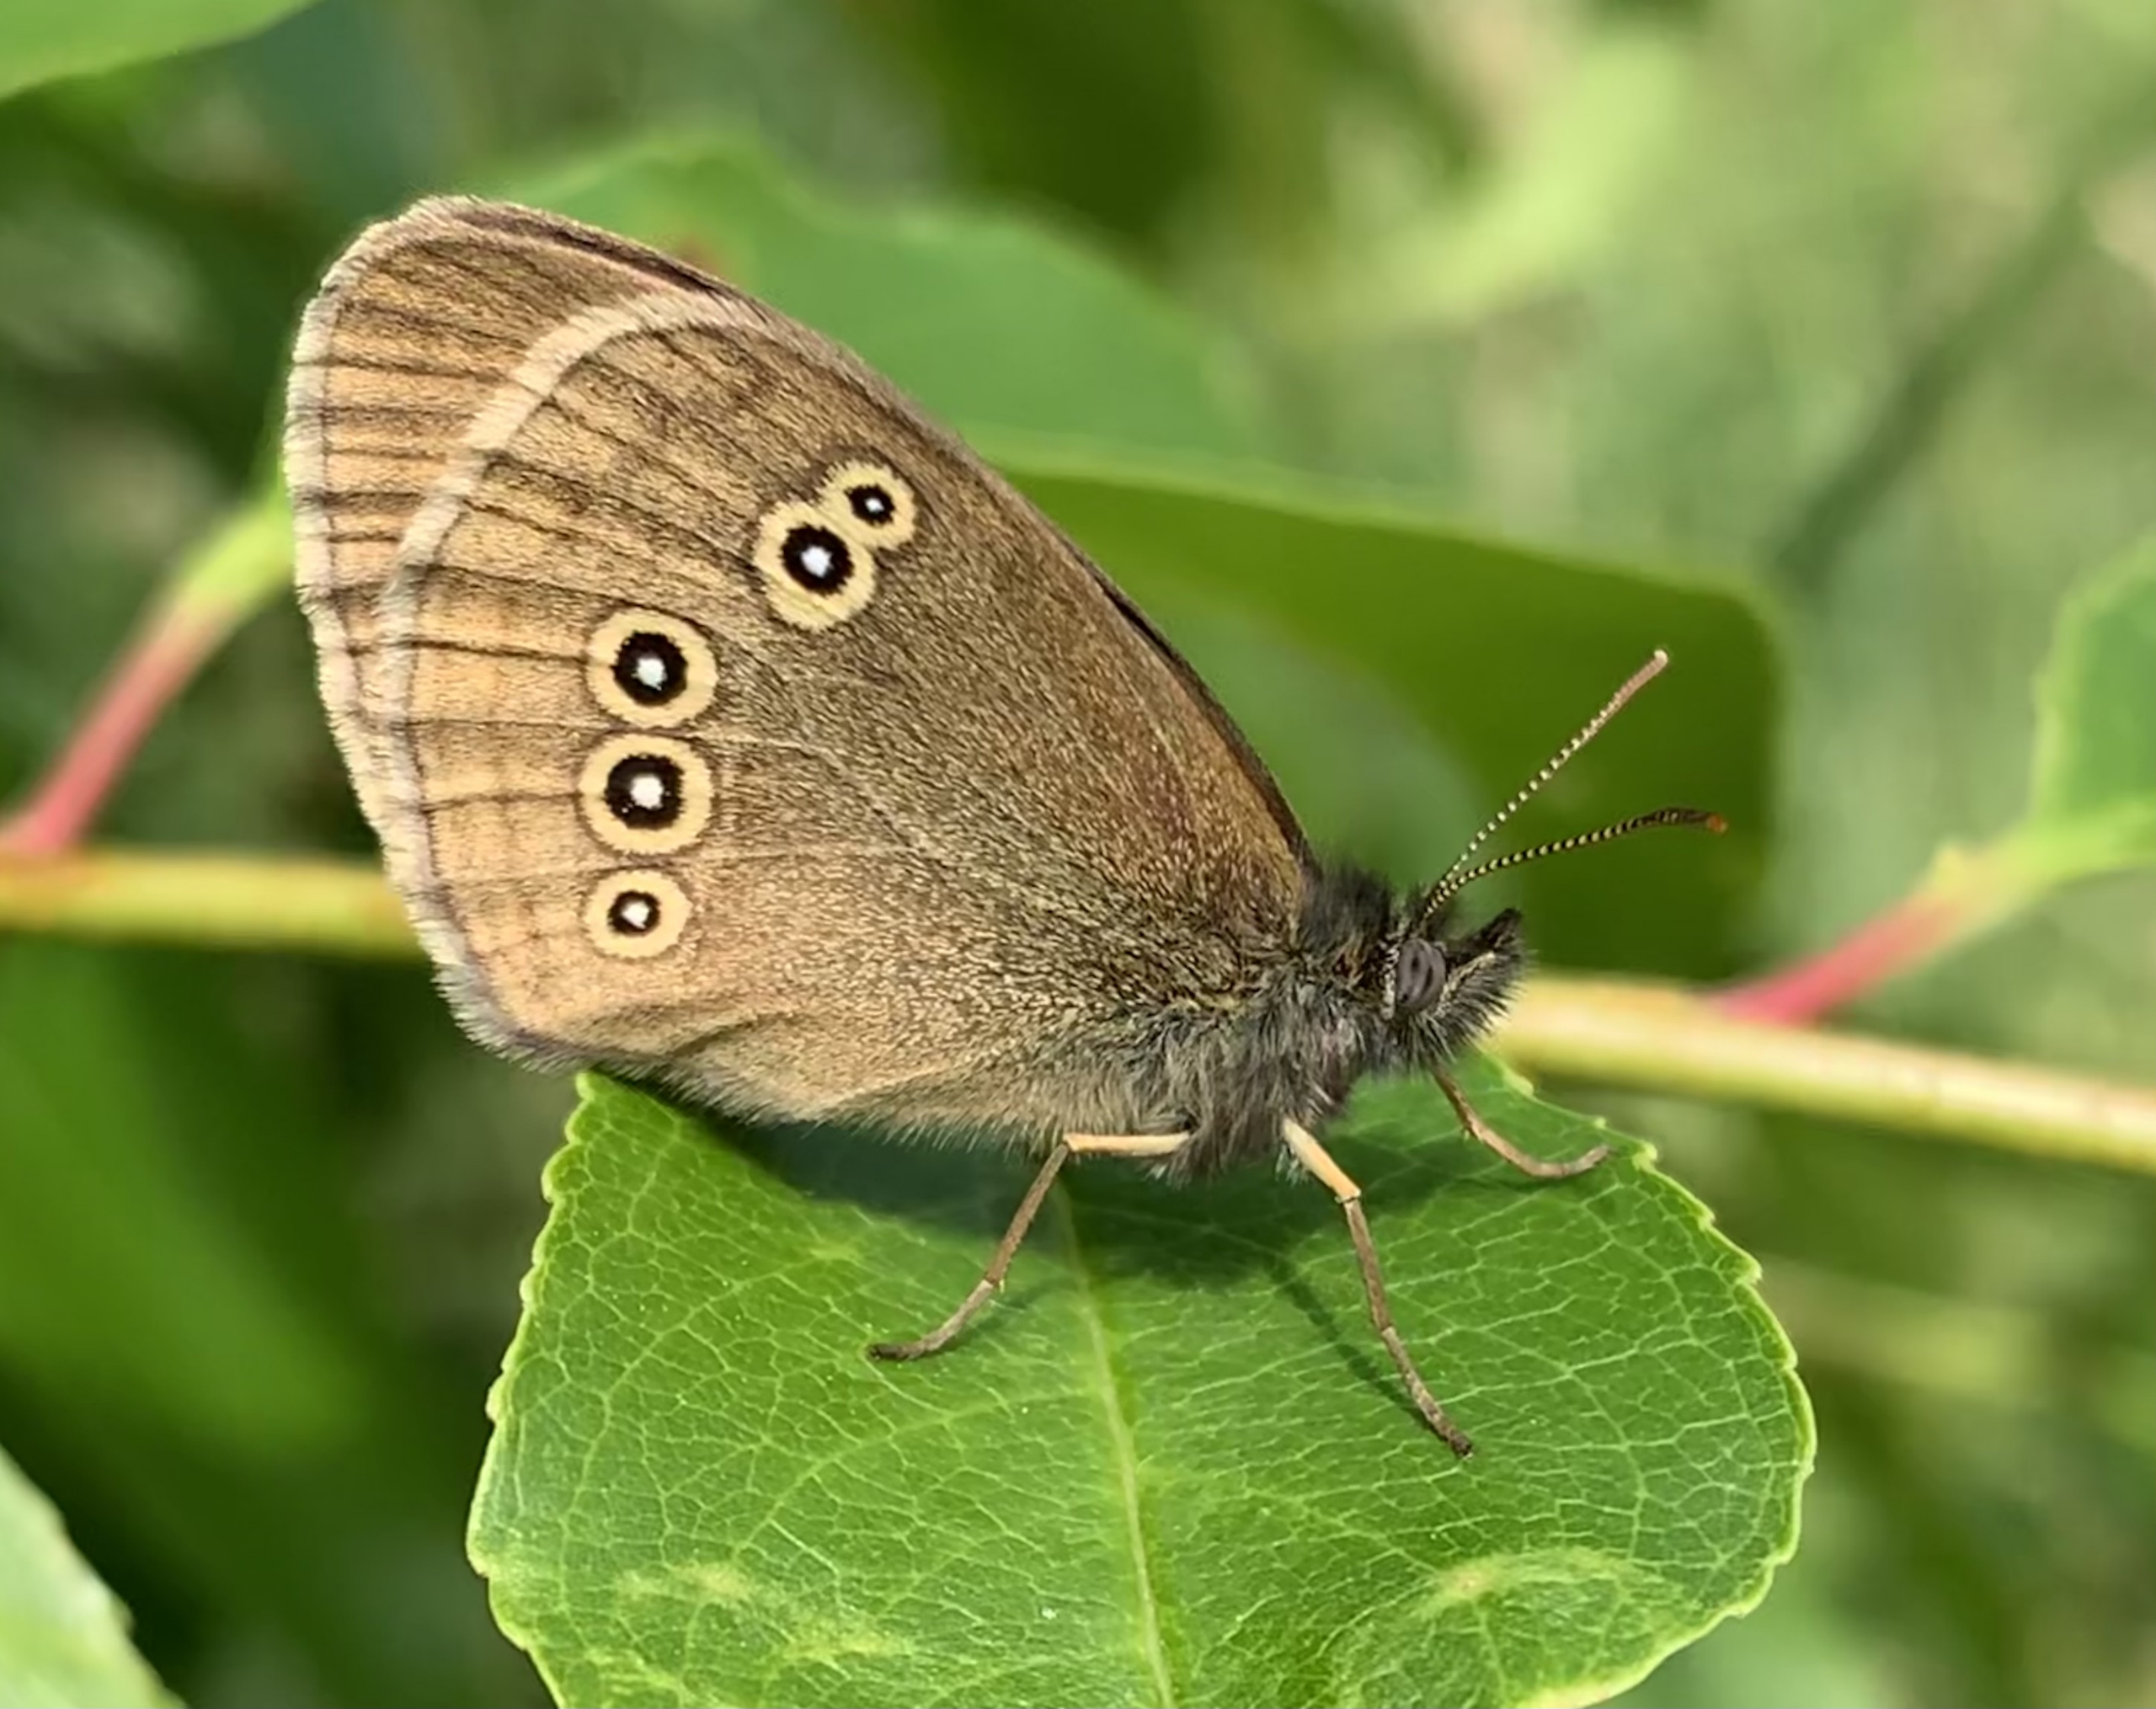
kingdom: Animalia
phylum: Arthropoda
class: Insecta
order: Lepidoptera
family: Nymphalidae
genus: Aphantopus
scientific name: Aphantopus hyperantus
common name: Engrandøje
